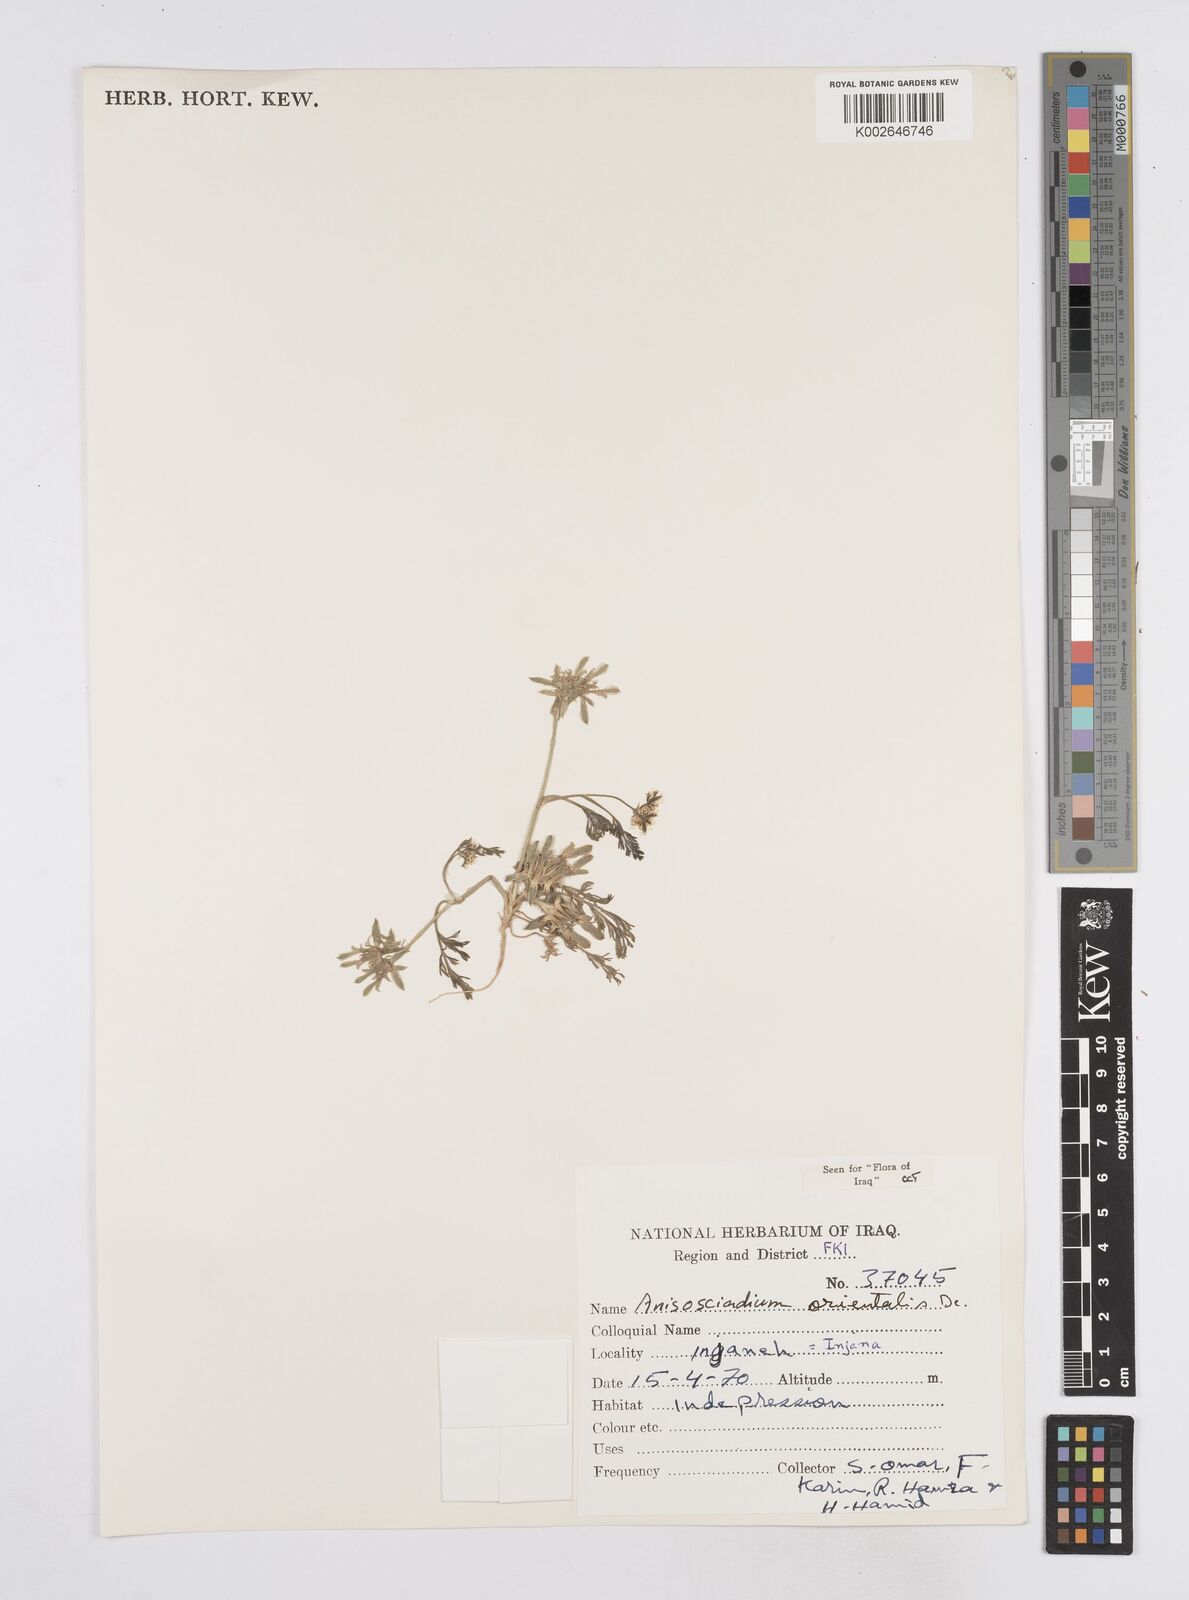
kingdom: Plantae
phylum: Tracheophyta
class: Magnoliopsida
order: Apiales
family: Apiaceae
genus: Anisosciadium
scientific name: Anisosciadium orientale
